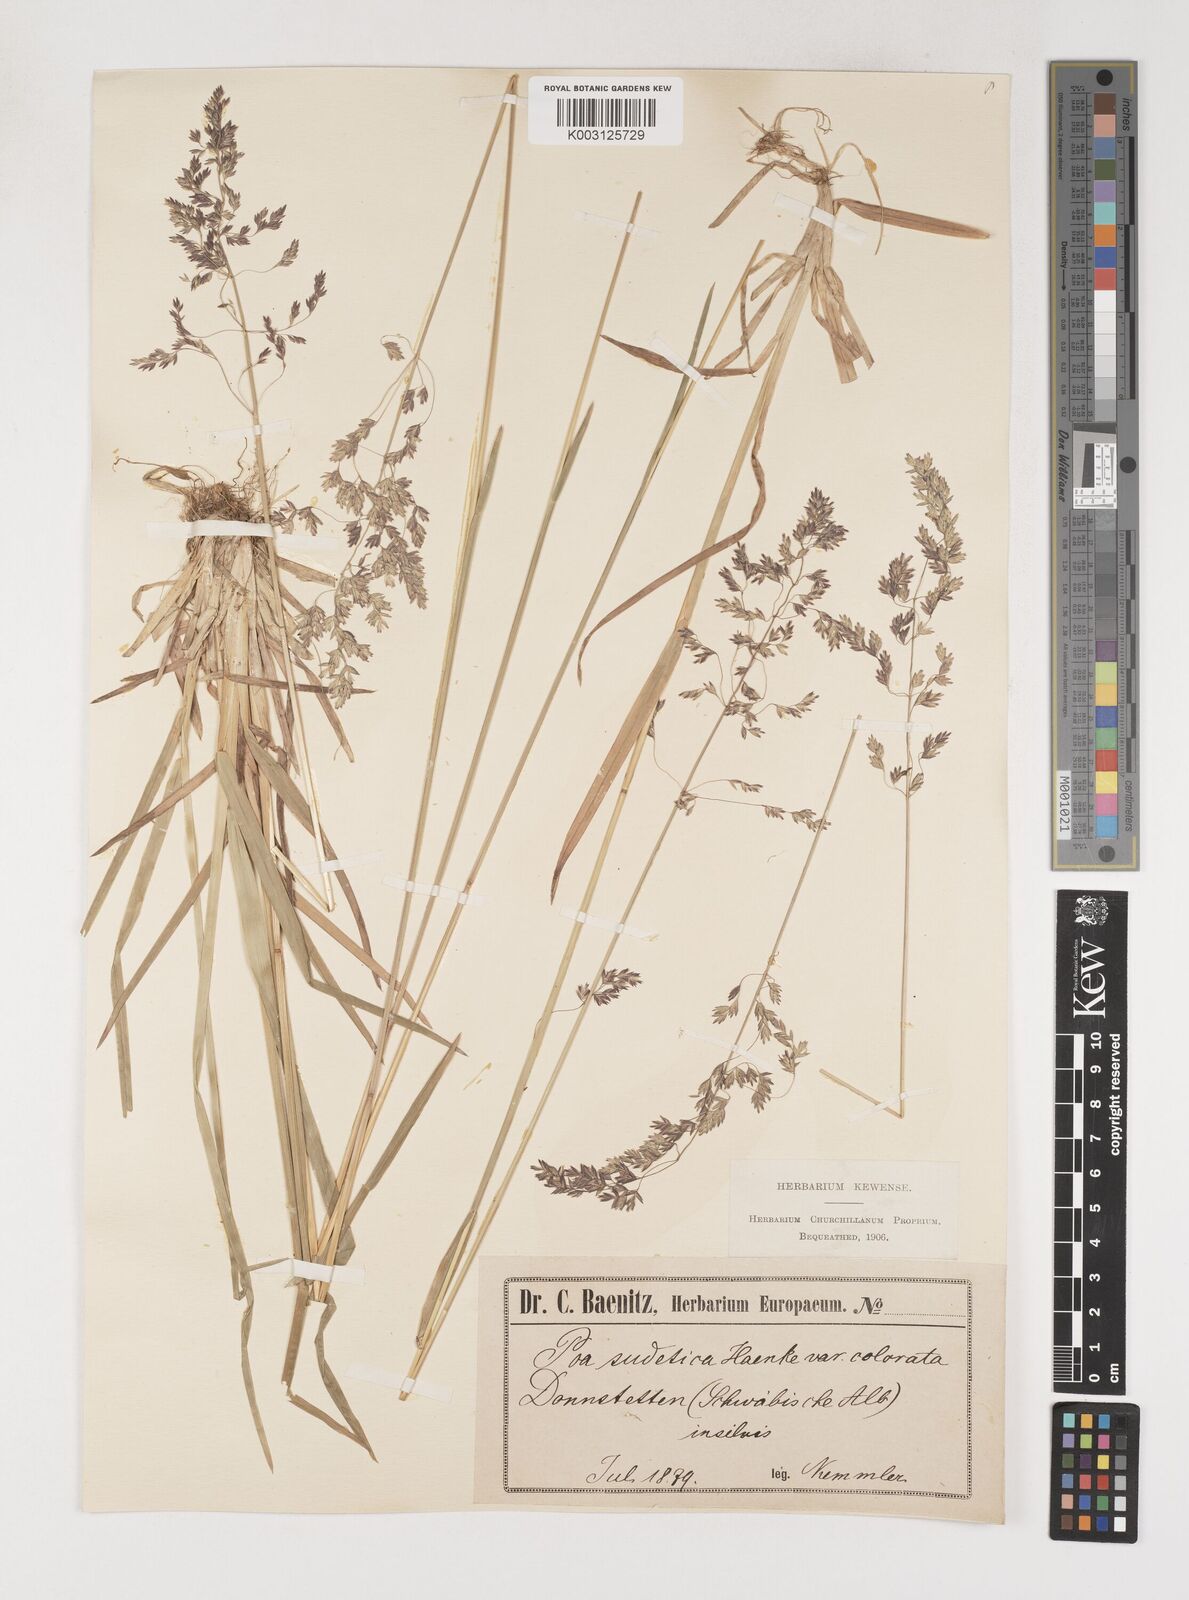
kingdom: Plantae
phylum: Tracheophyta
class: Liliopsida
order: Poales
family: Poaceae
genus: Poa
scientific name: Poa chaixii
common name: Broad-leaved meadow-grass
